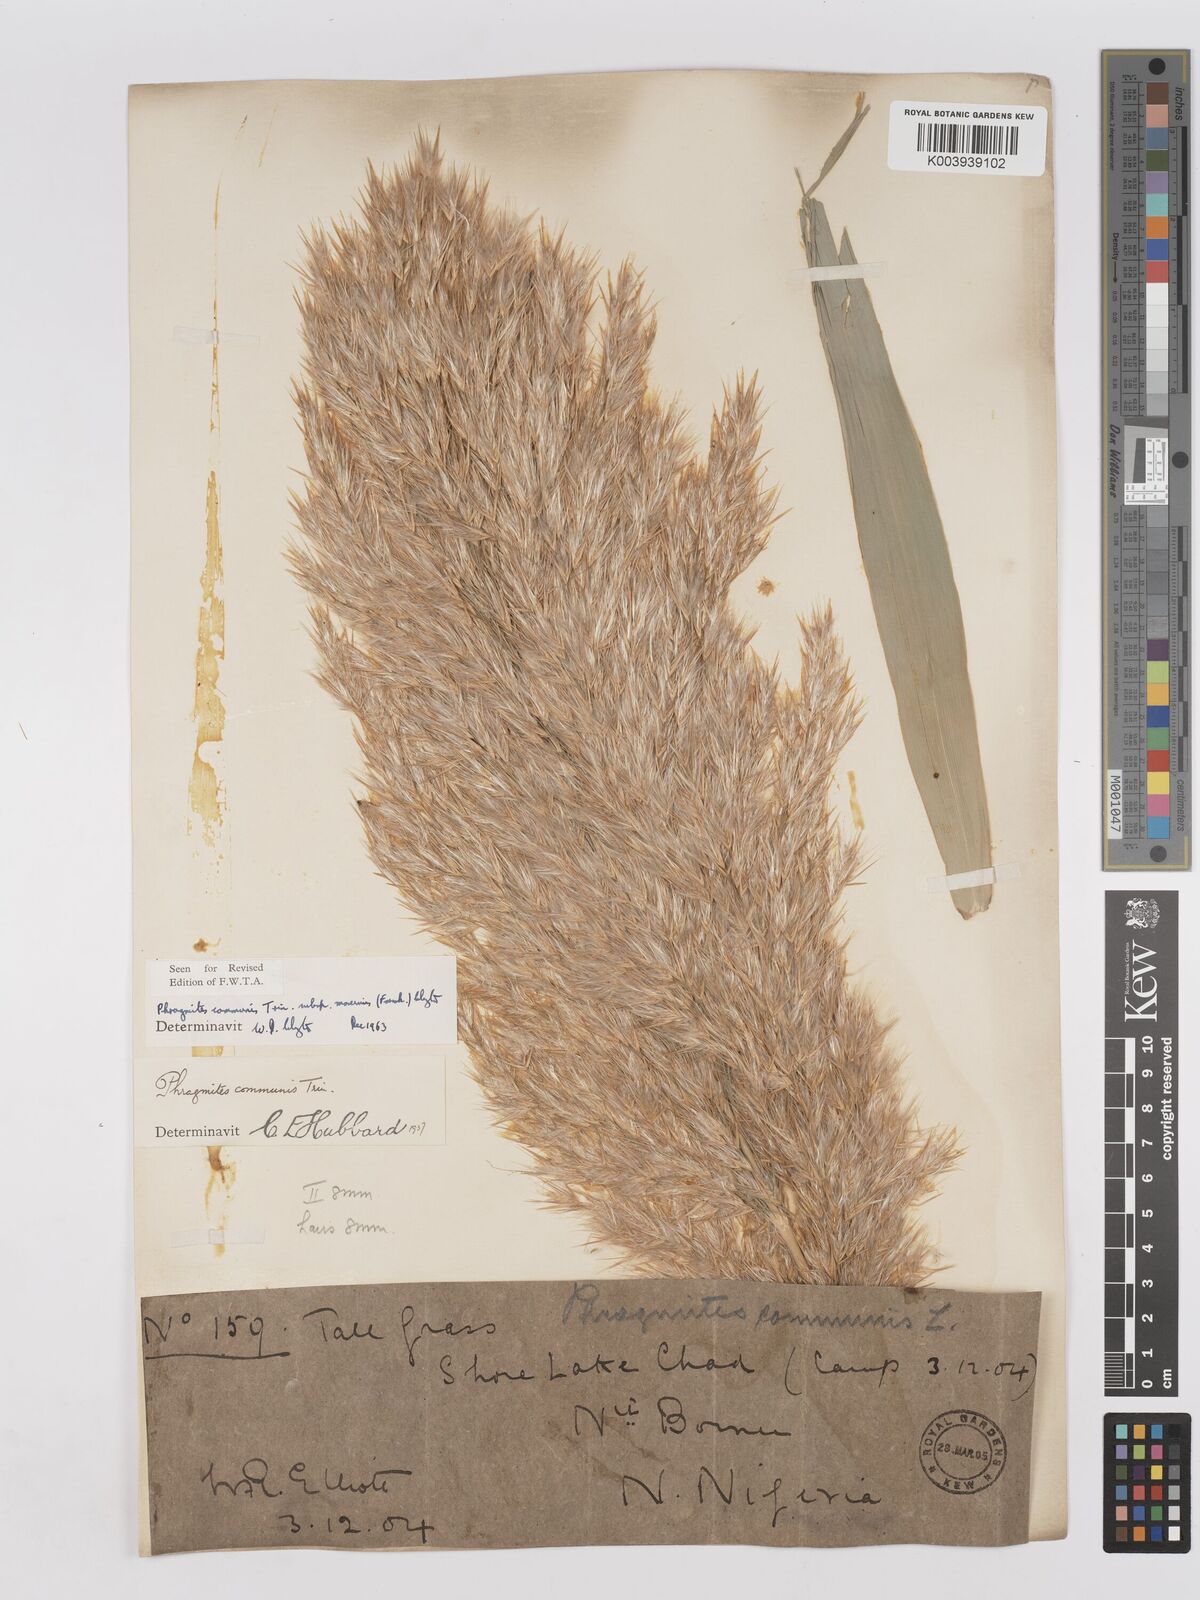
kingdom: Plantae
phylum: Tracheophyta
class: Liliopsida
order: Poales
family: Poaceae
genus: Phragmites
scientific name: Phragmites australis
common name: Common reed
